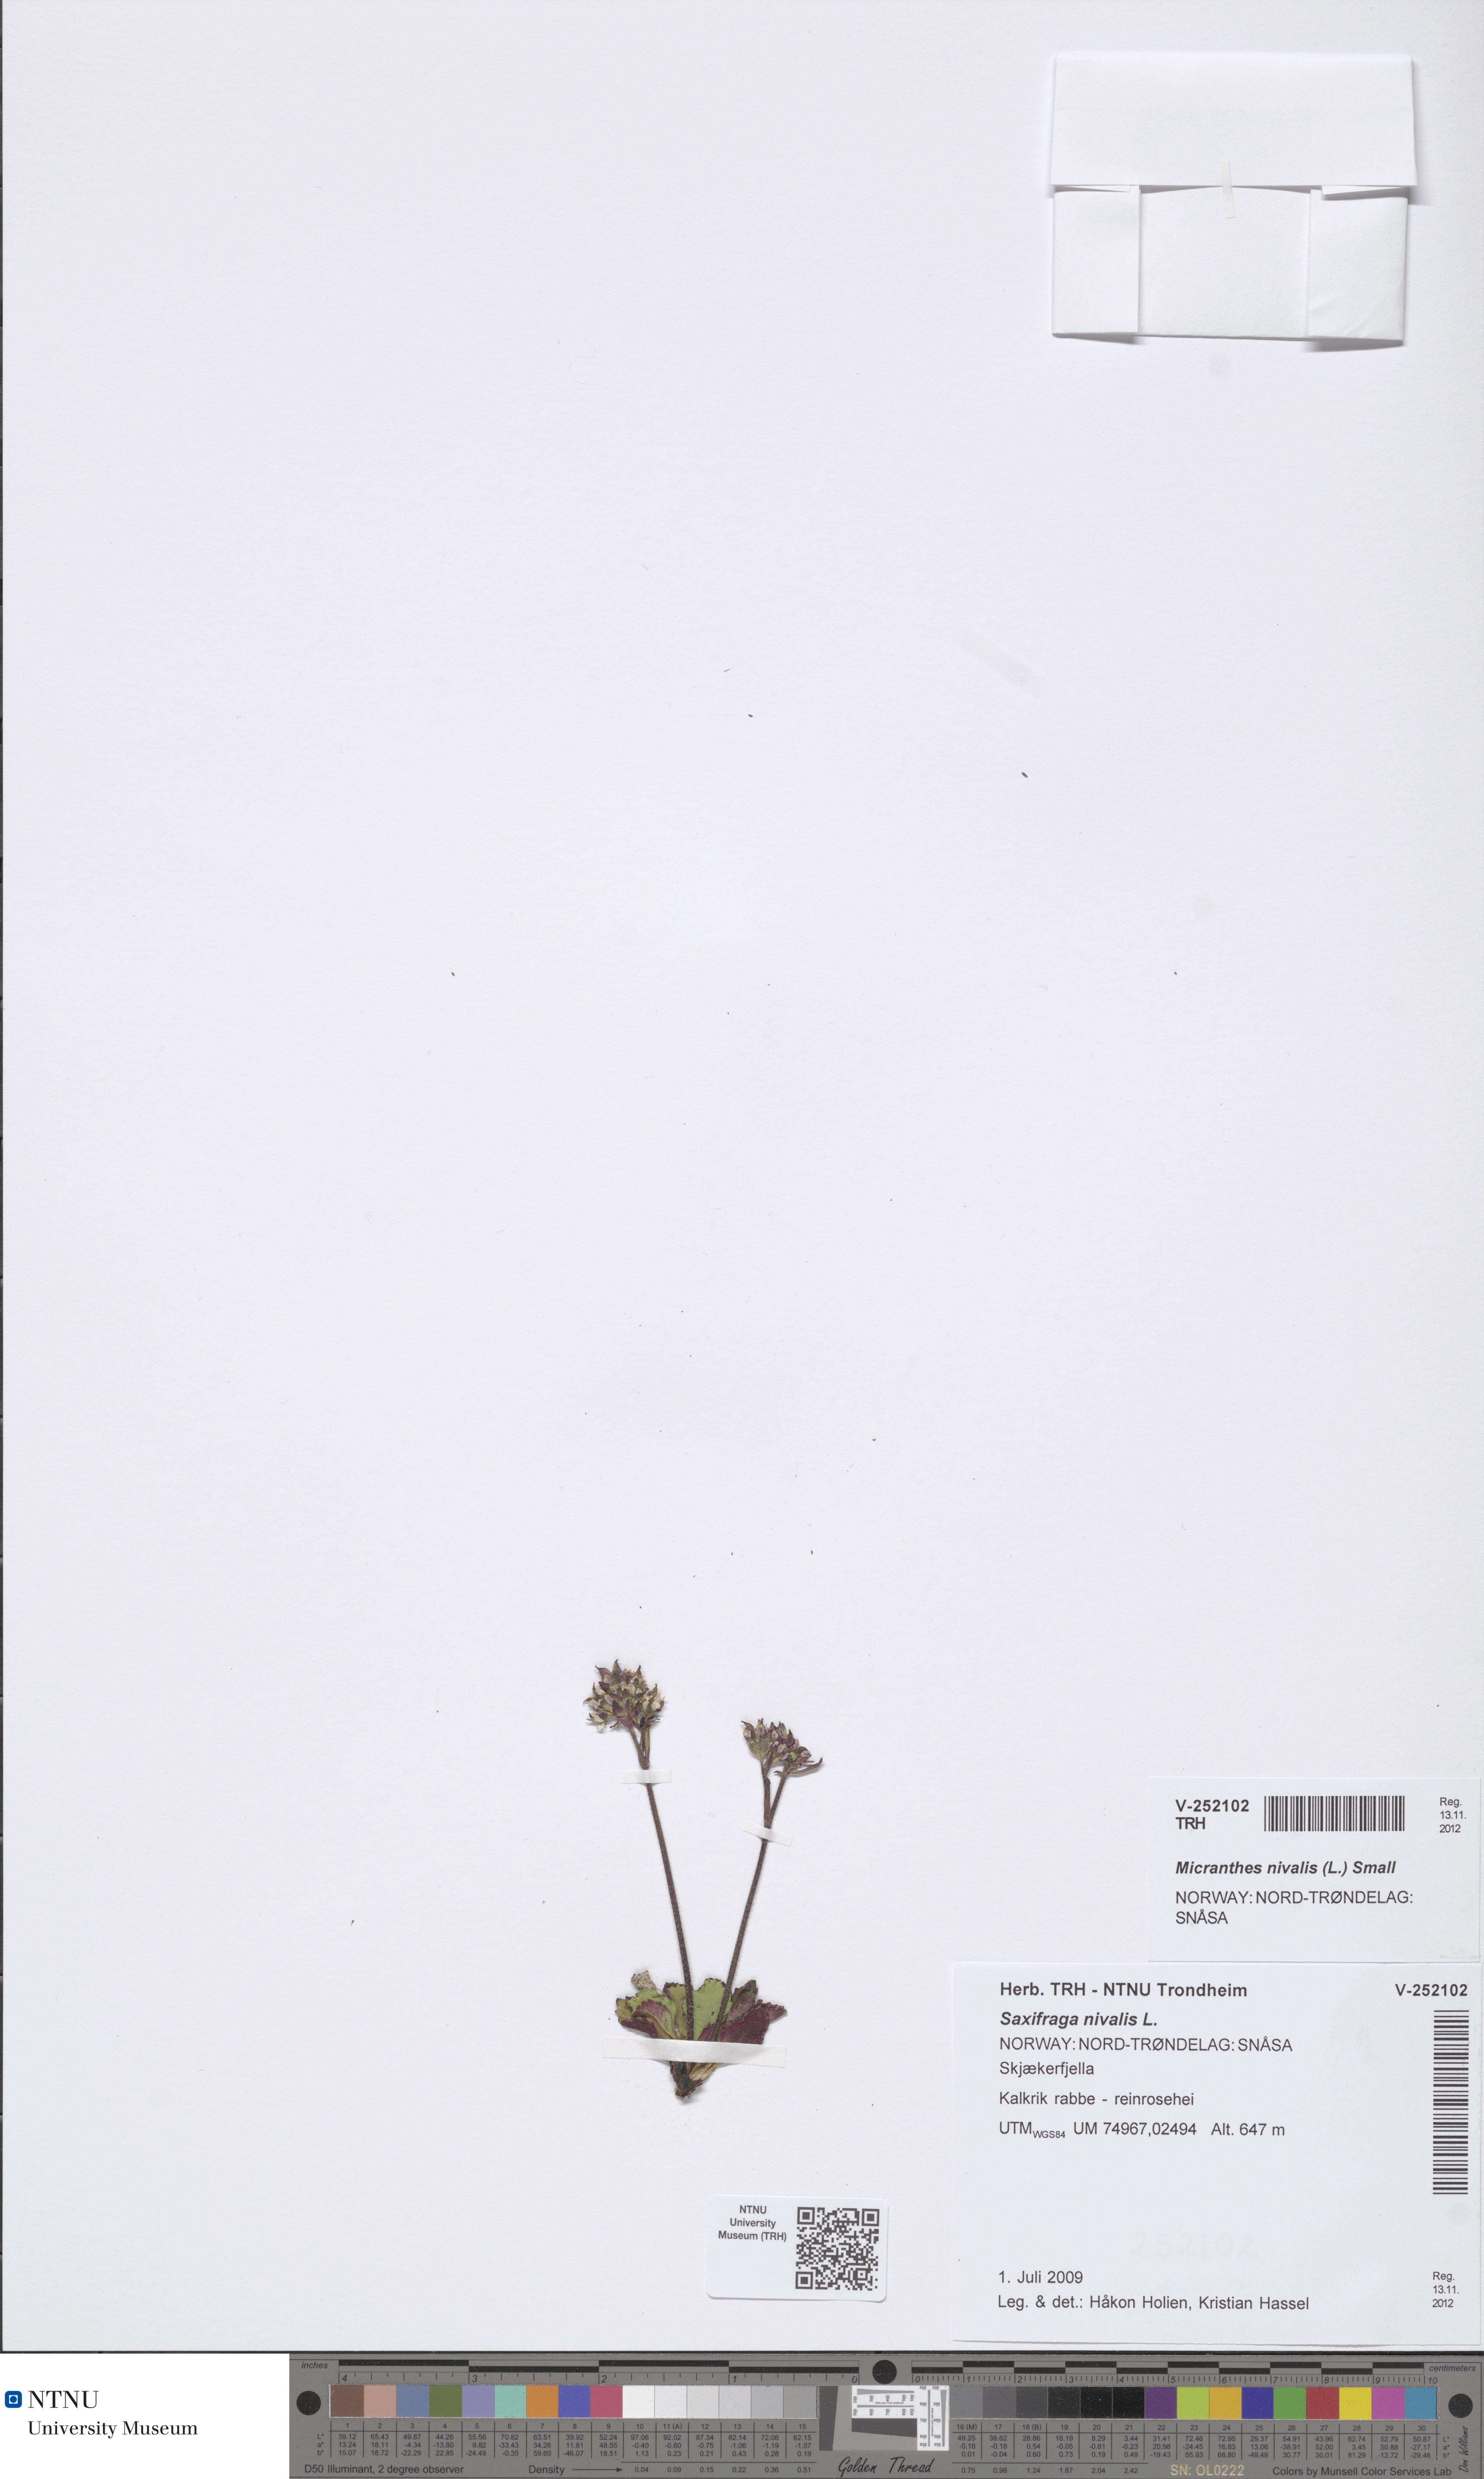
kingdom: Plantae
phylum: Tracheophyta
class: Magnoliopsida
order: Saxifragales
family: Saxifragaceae
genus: Micranthes
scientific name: Micranthes nivalis
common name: Alpine saxifrage
